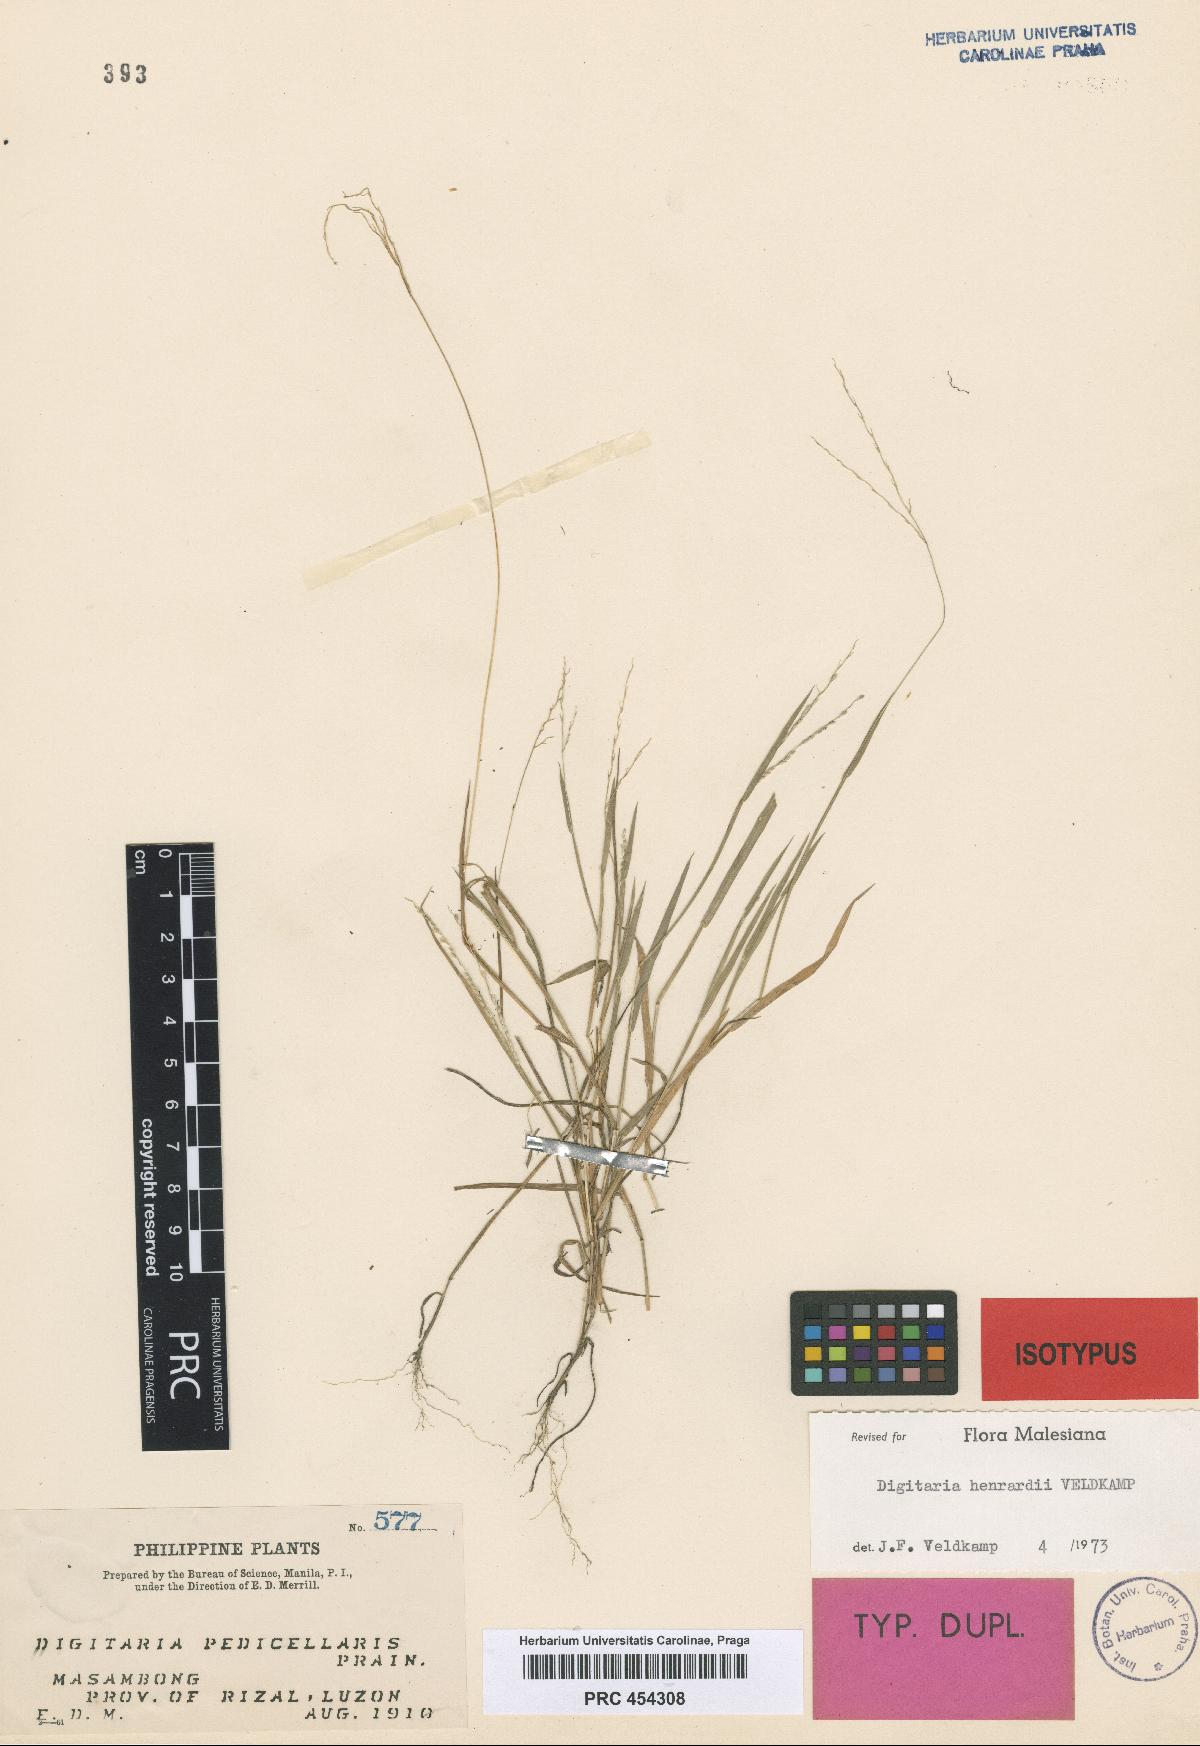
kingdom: Plantae
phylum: Tracheophyta
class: Liliopsida
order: Poales
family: Poaceae
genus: Digitaria
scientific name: Digitaria henrardii
